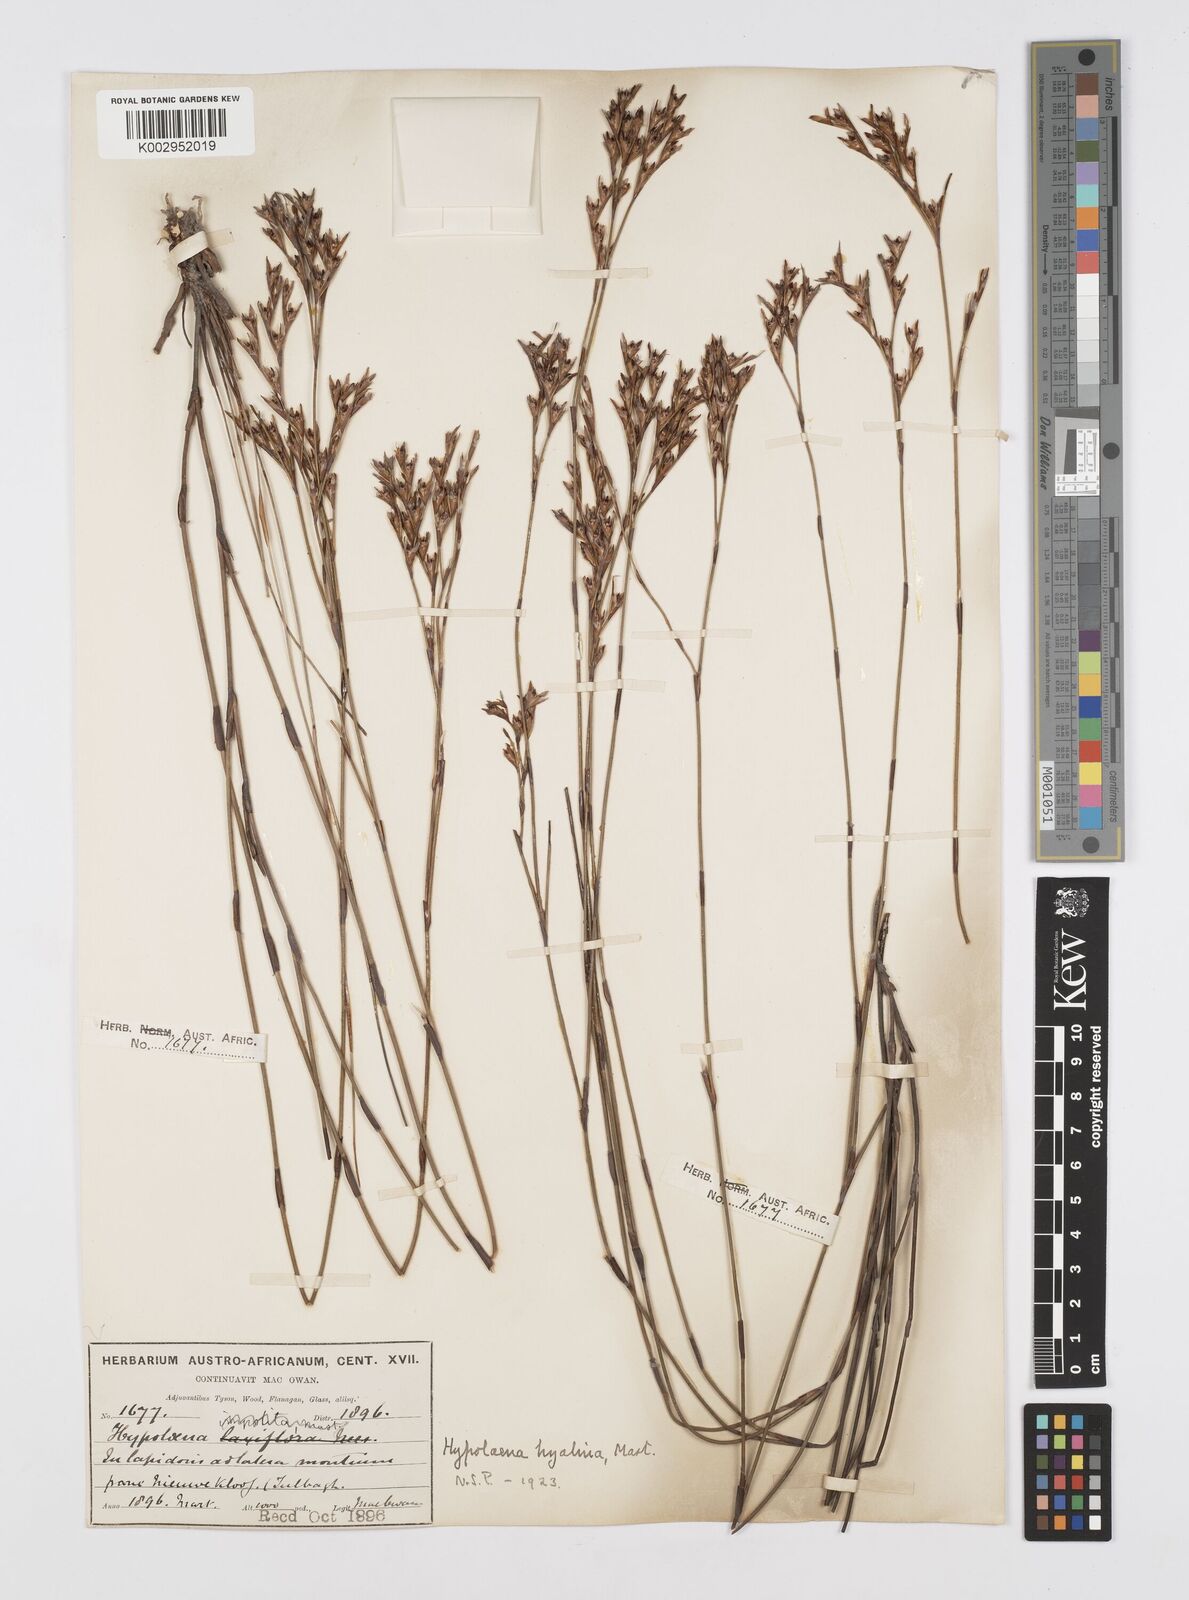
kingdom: Plantae
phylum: Tracheophyta
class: Liliopsida
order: Poales
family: Restionaceae
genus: Restio
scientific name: Restio hyalinus
